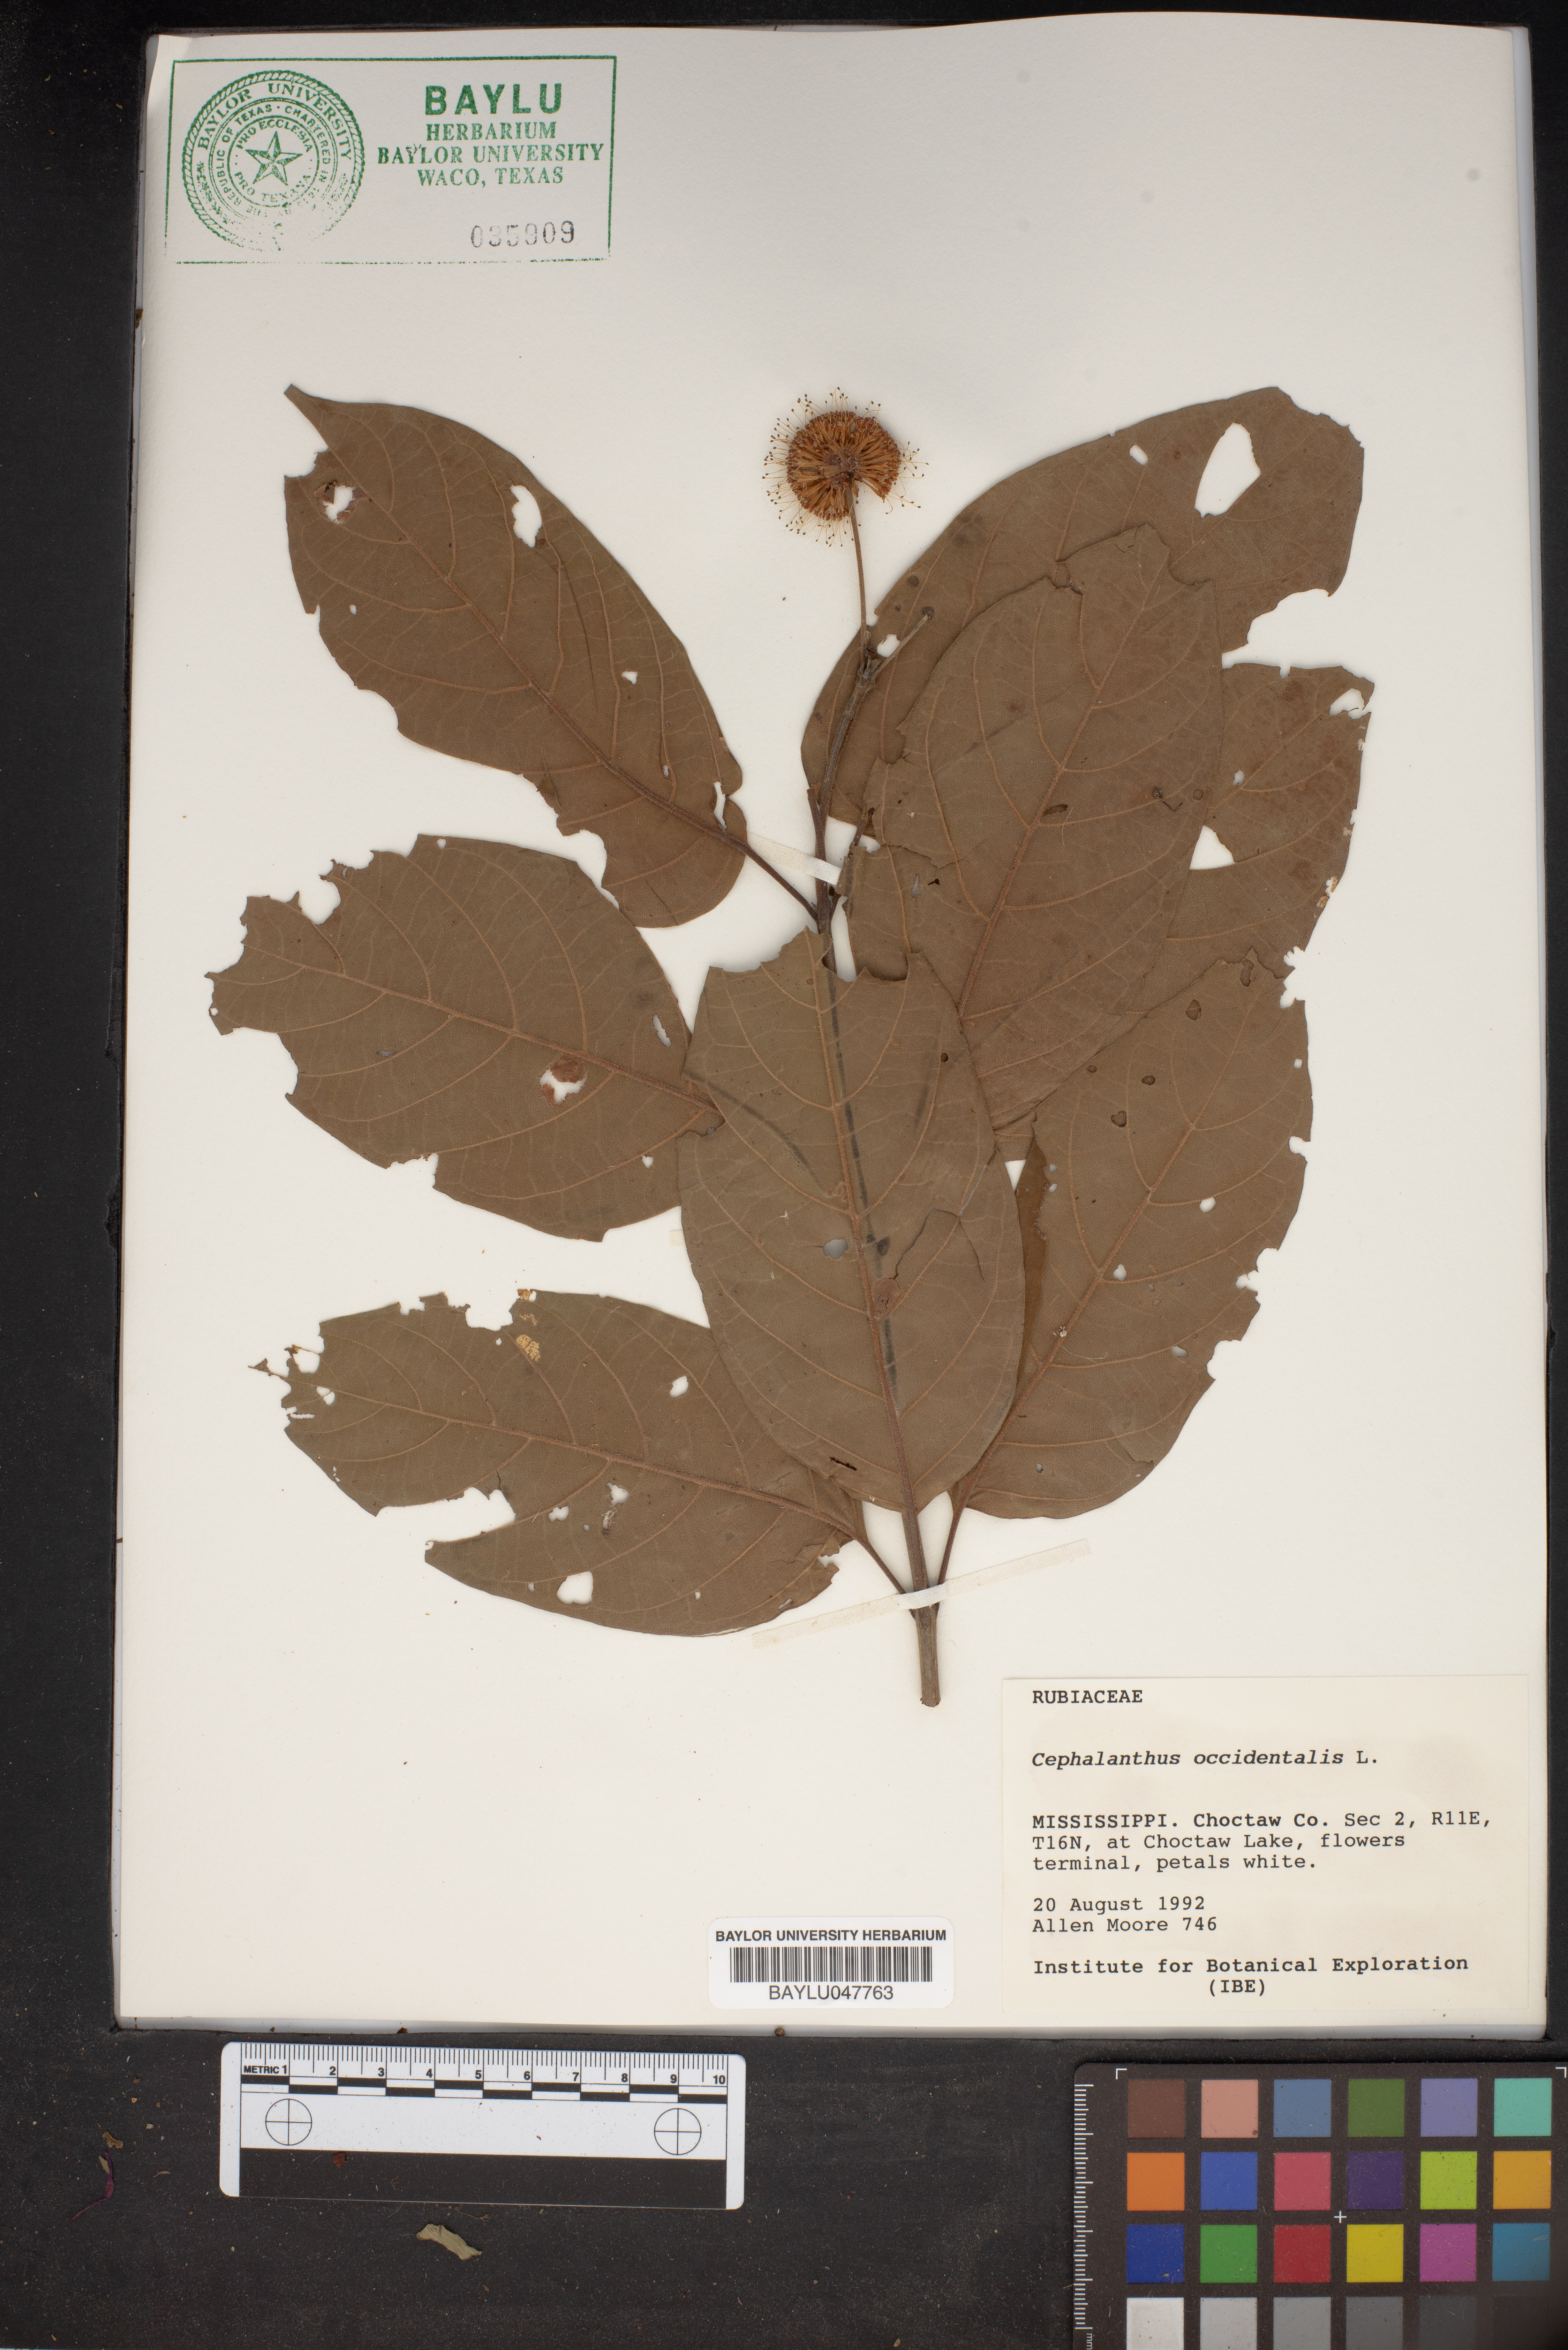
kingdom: Plantae
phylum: Tracheophyta
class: Magnoliopsida
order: Gentianales
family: Rubiaceae
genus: Cephalanthus
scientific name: Cephalanthus occidentalis
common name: Button-willow
